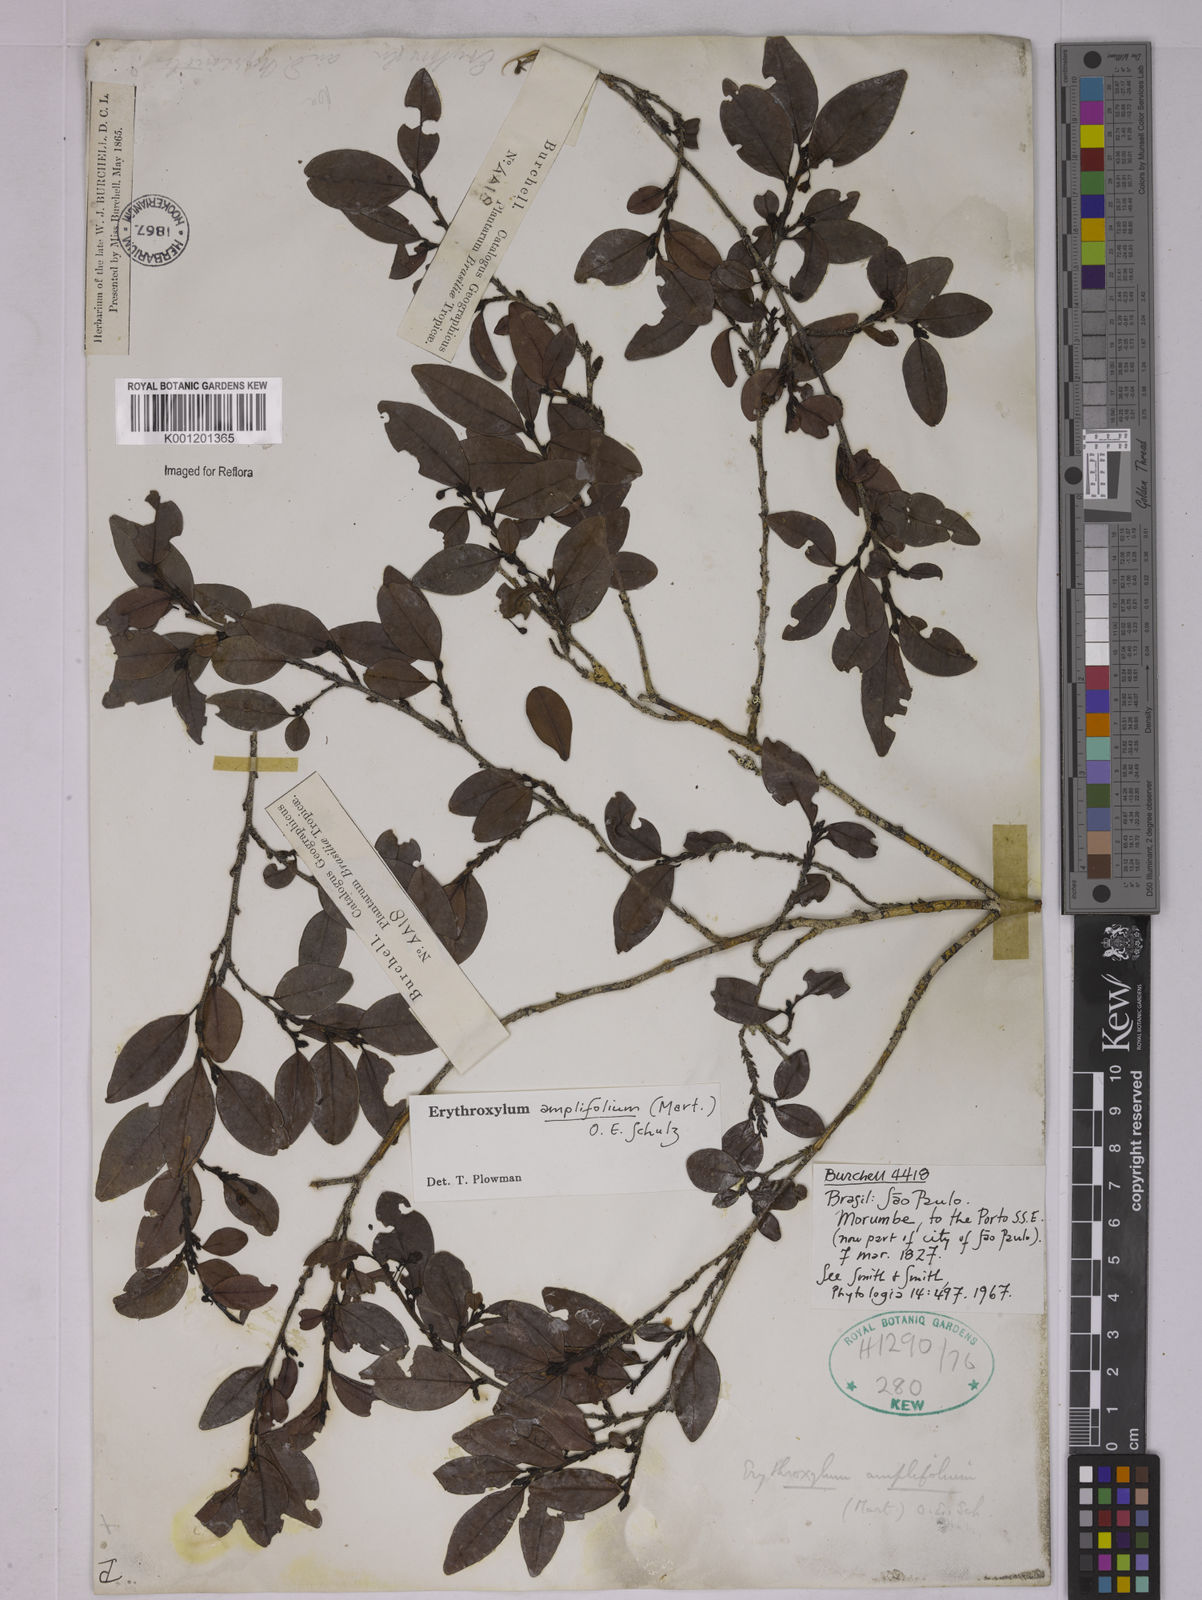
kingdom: Plantae
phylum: Tracheophyta
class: Magnoliopsida
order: Malpighiales
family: Erythroxylaceae
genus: Erythroxylum
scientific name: Erythroxylum
